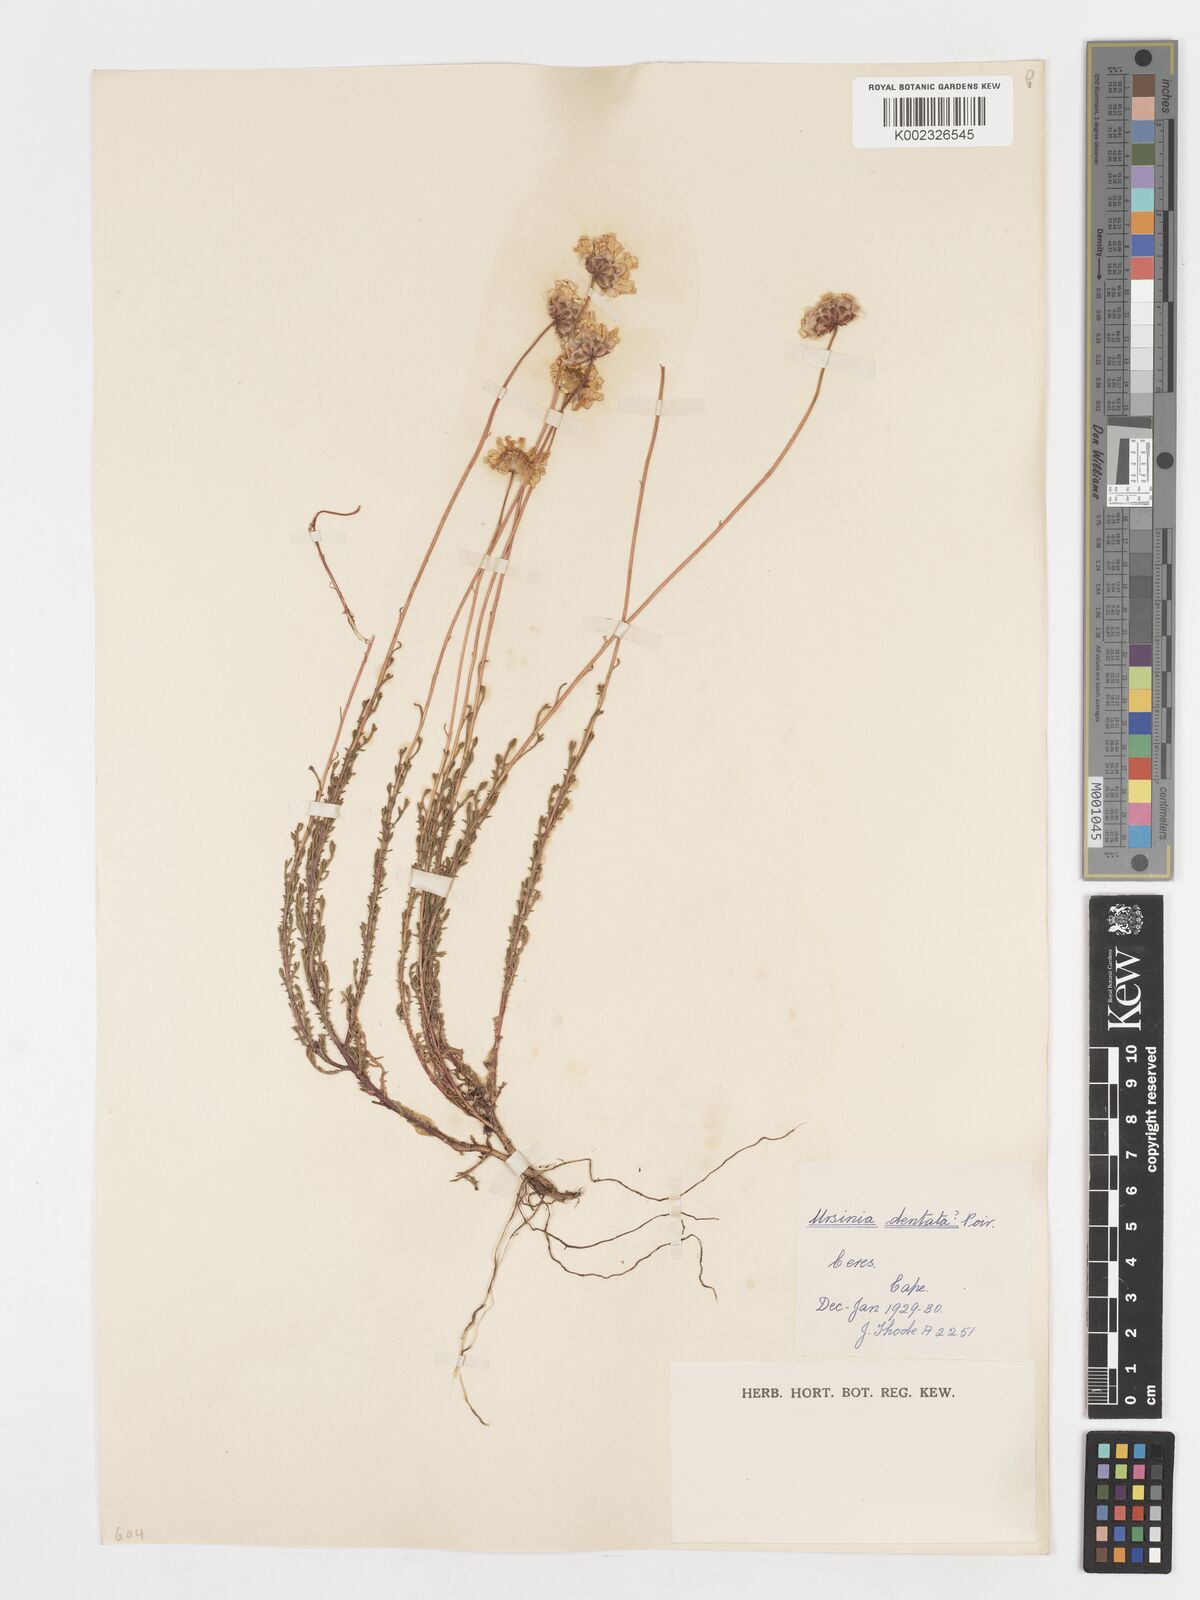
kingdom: Plantae
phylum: Tracheophyta
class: Magnoliopsida
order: Asterales
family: Asteraceae
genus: Ursinia
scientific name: Ursinia anethoides
